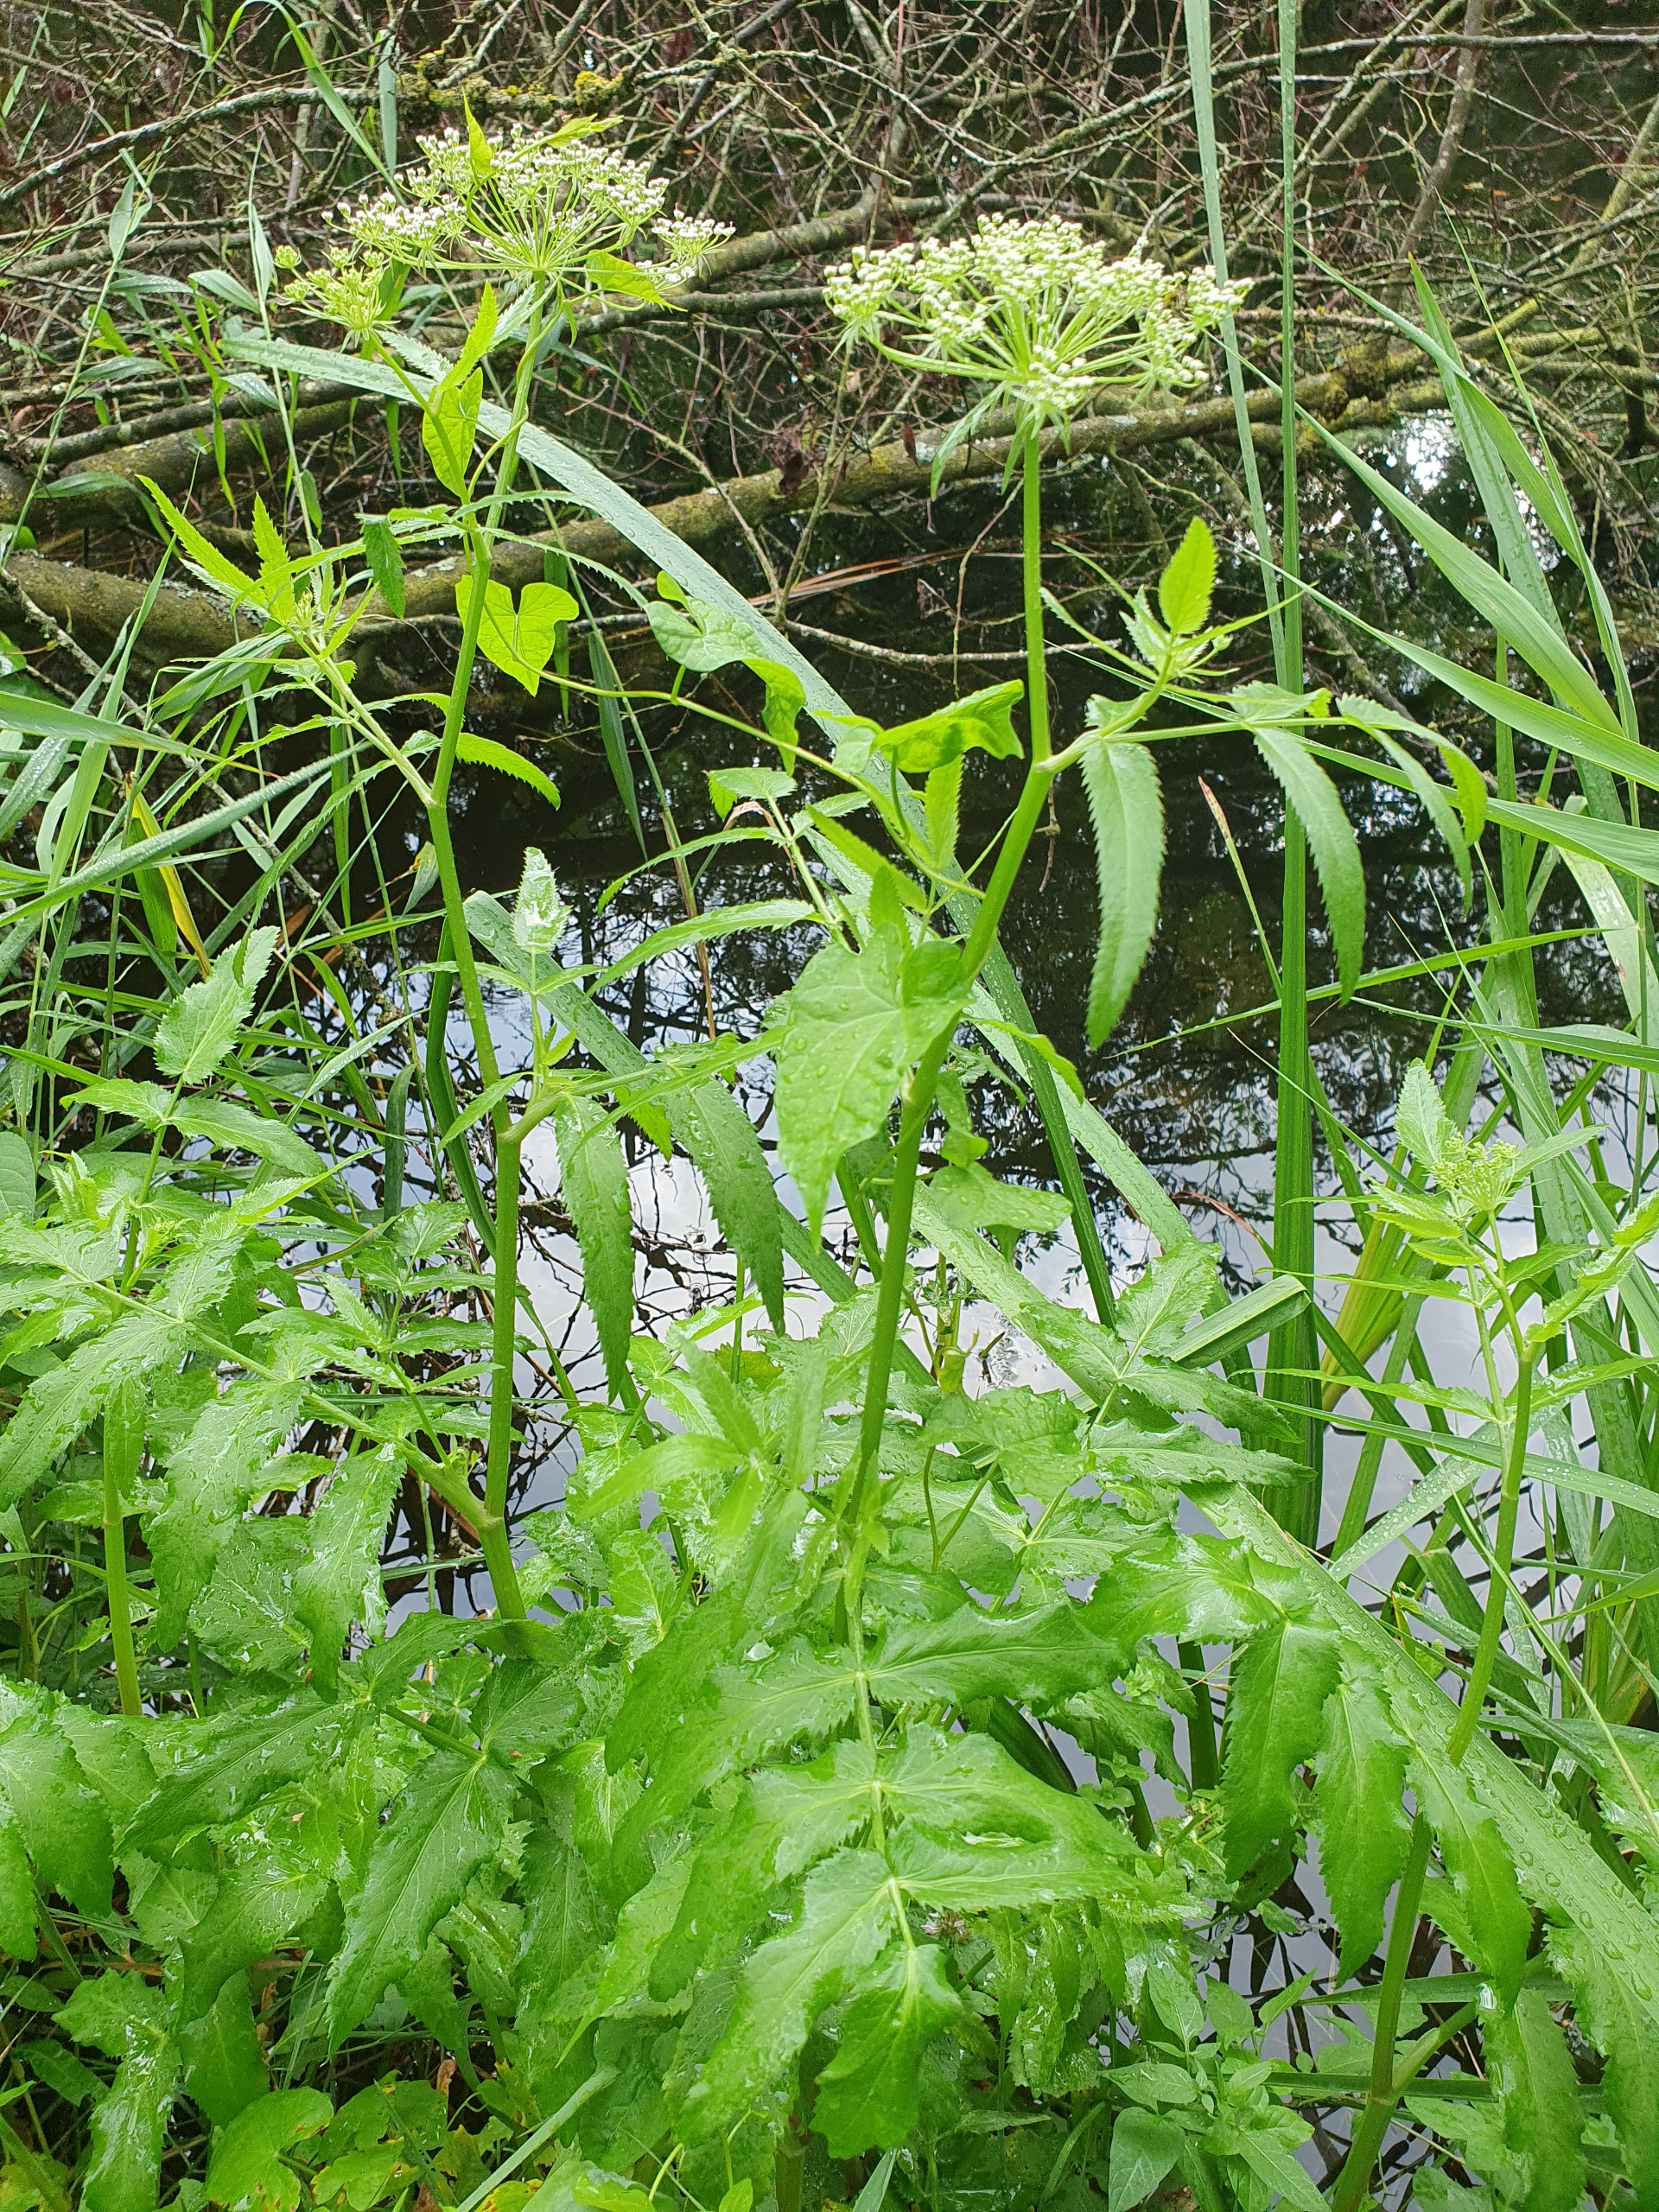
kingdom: Plantae
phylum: Tracheophyta
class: Magnoliopsida
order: Apiales
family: Apiaceae
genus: Sium
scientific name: Sium latifolium
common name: Bredbladet mærke
